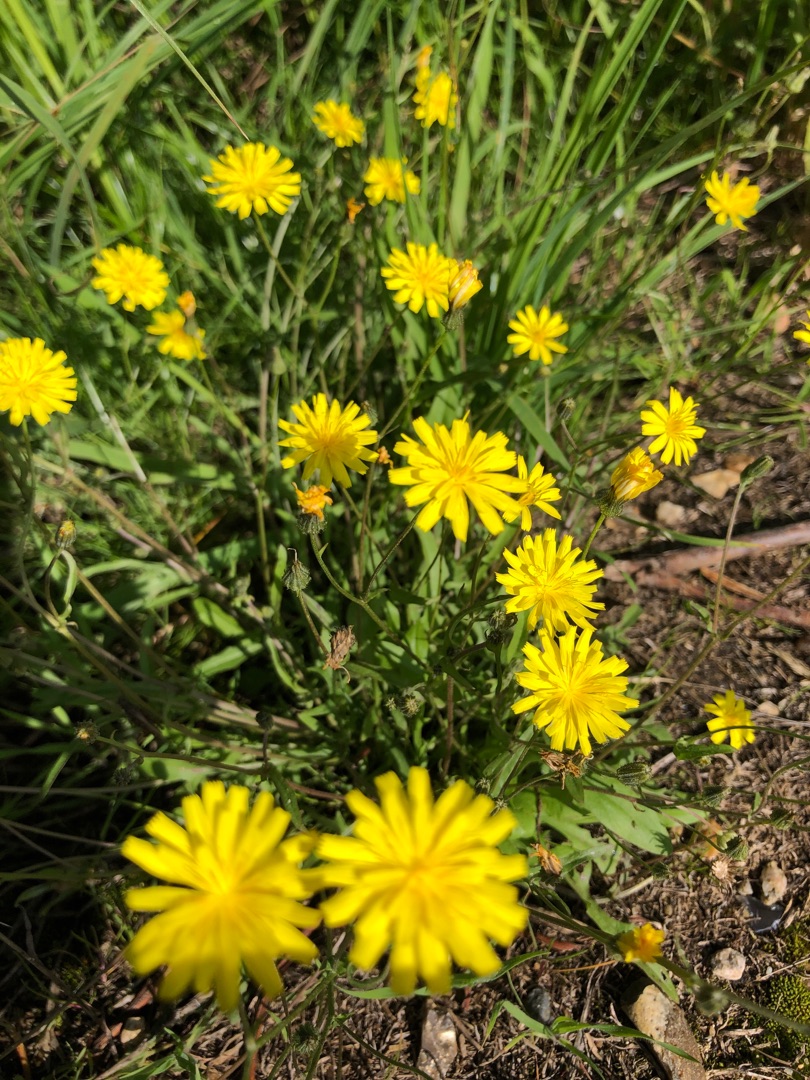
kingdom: Plantae
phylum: Tracheophyta
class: Magnoliopsida
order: Asterales
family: Asteraceae
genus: Crepis
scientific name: Crepis capillaris
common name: Grøn høgeskæg
